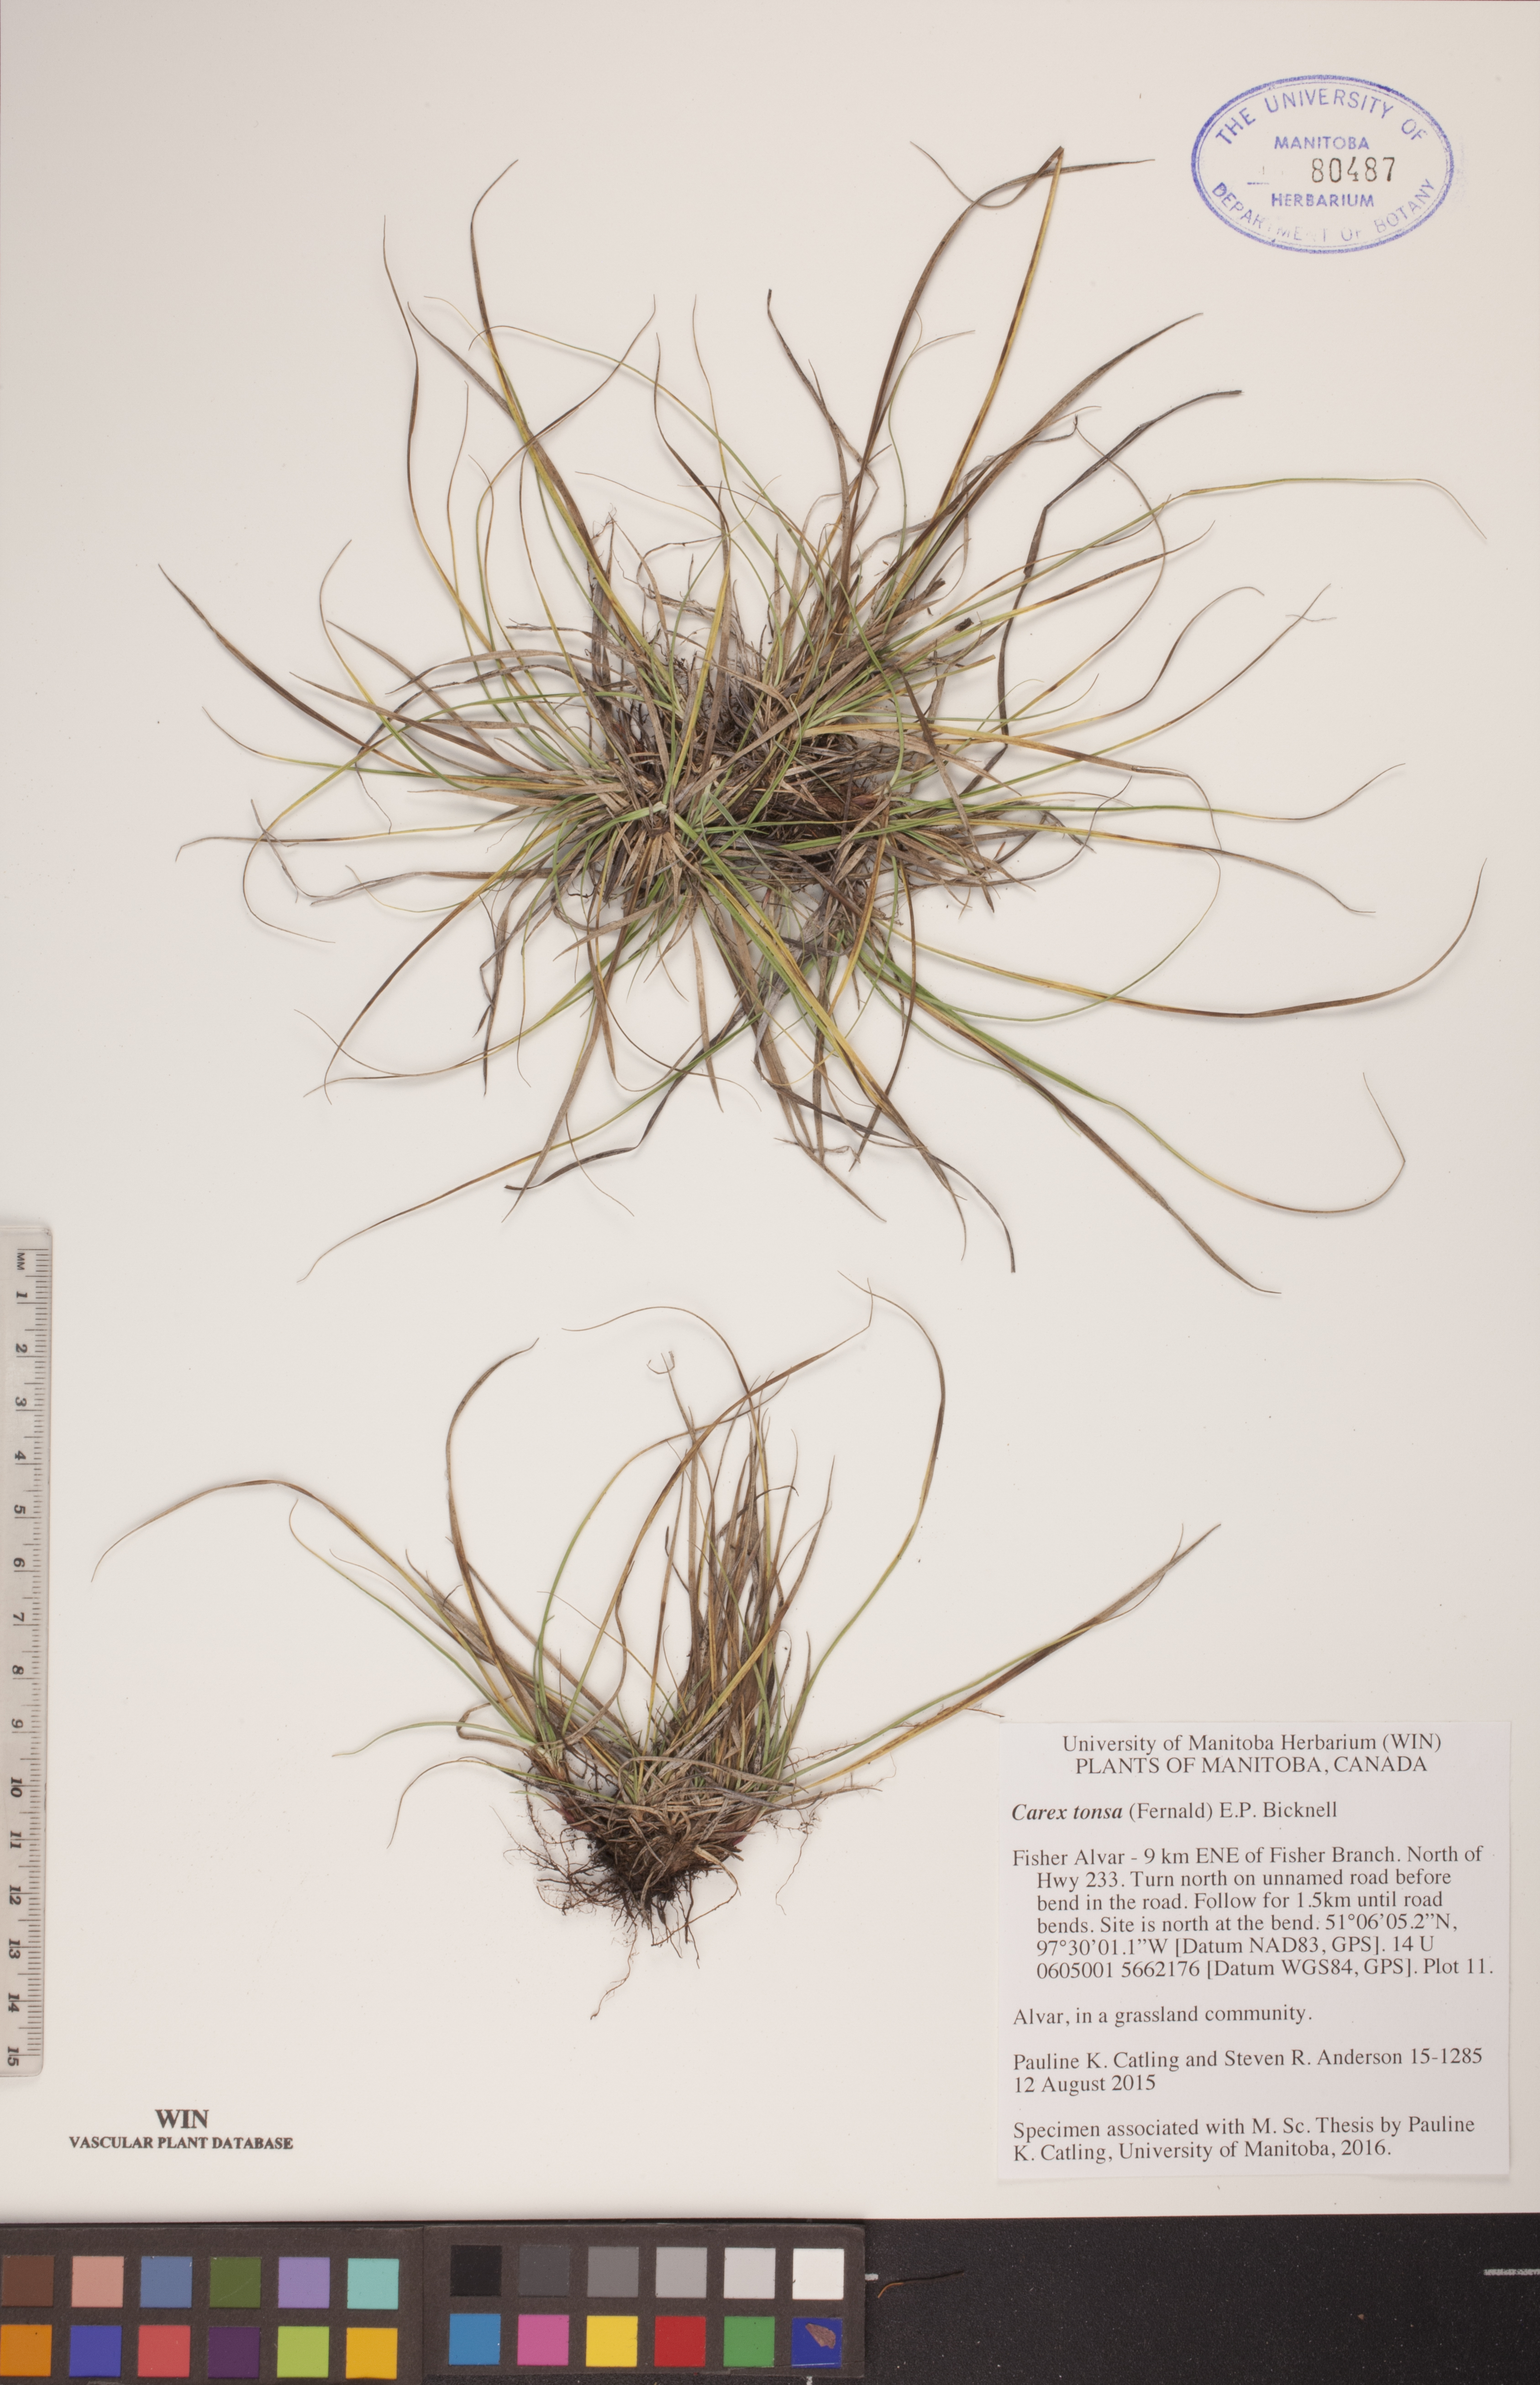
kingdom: Plantae
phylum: Tracheophyta
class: Liliopsida
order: Poales
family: Cyperaceae
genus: Carex
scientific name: Carex tonsa
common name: Bald sedge
